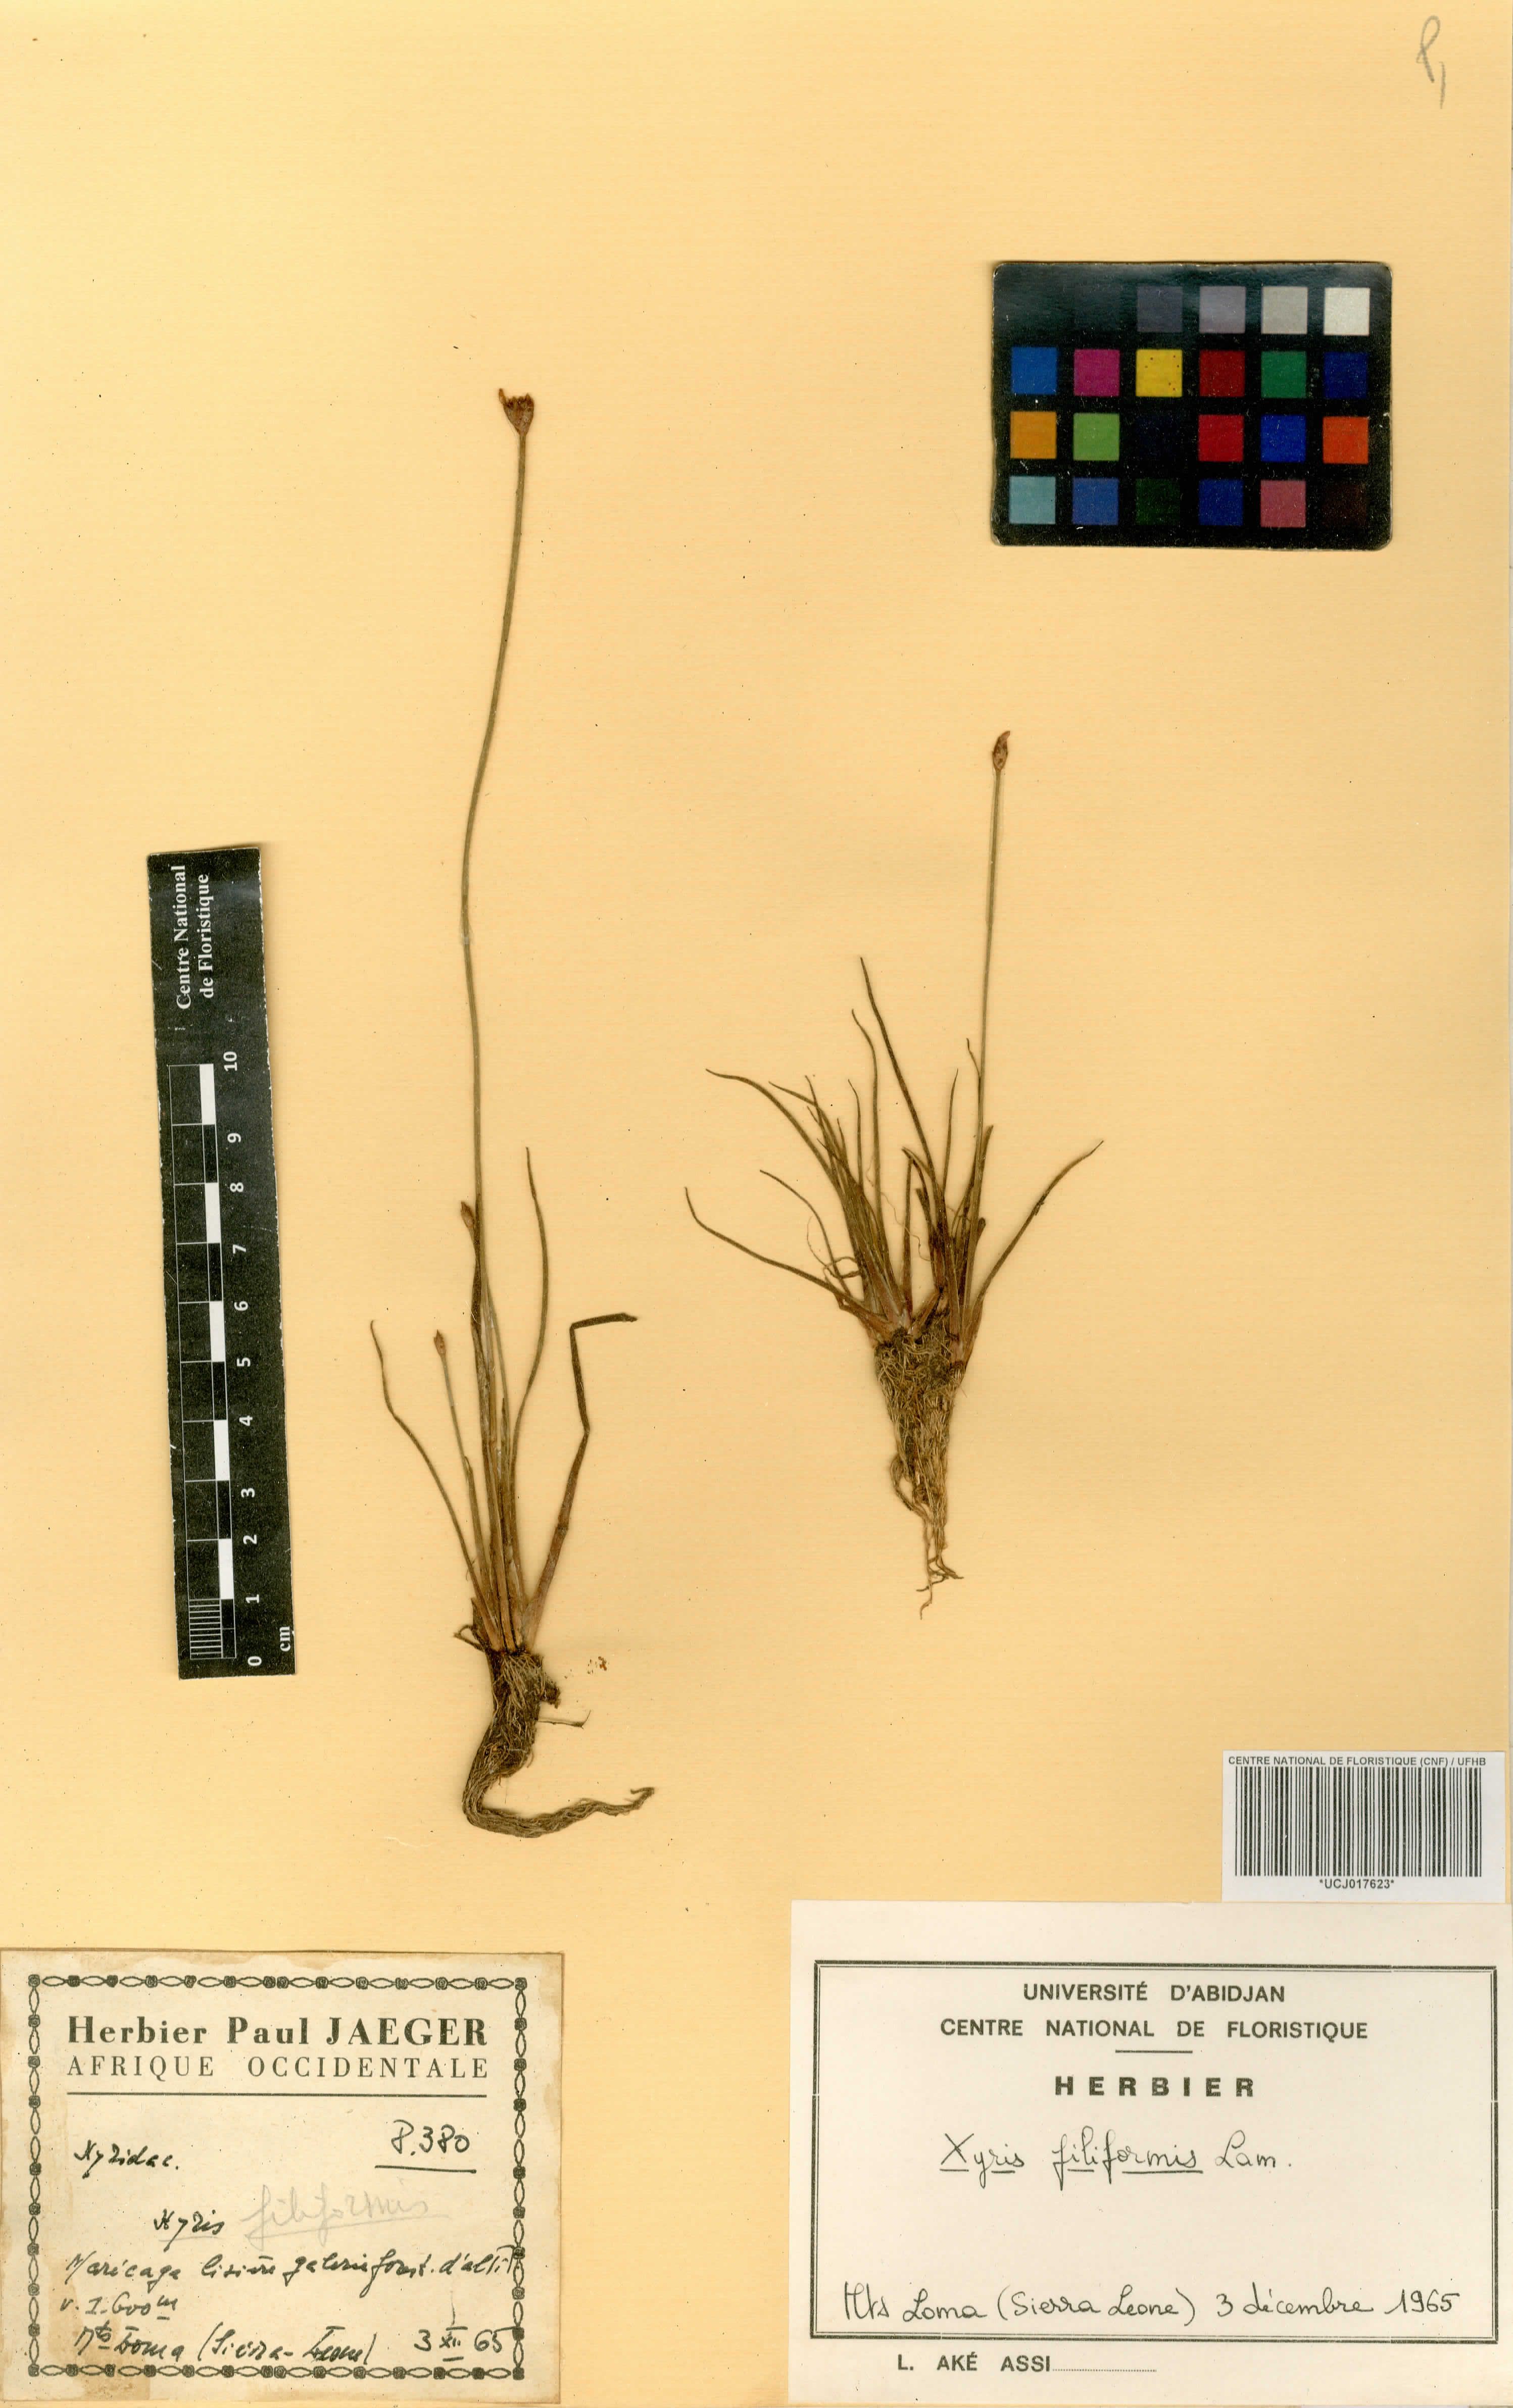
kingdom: Plantae
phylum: Tracheophyta
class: Liliopsida
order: Poales
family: Xyridaceae
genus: Xyris
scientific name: Xyris filiformis
